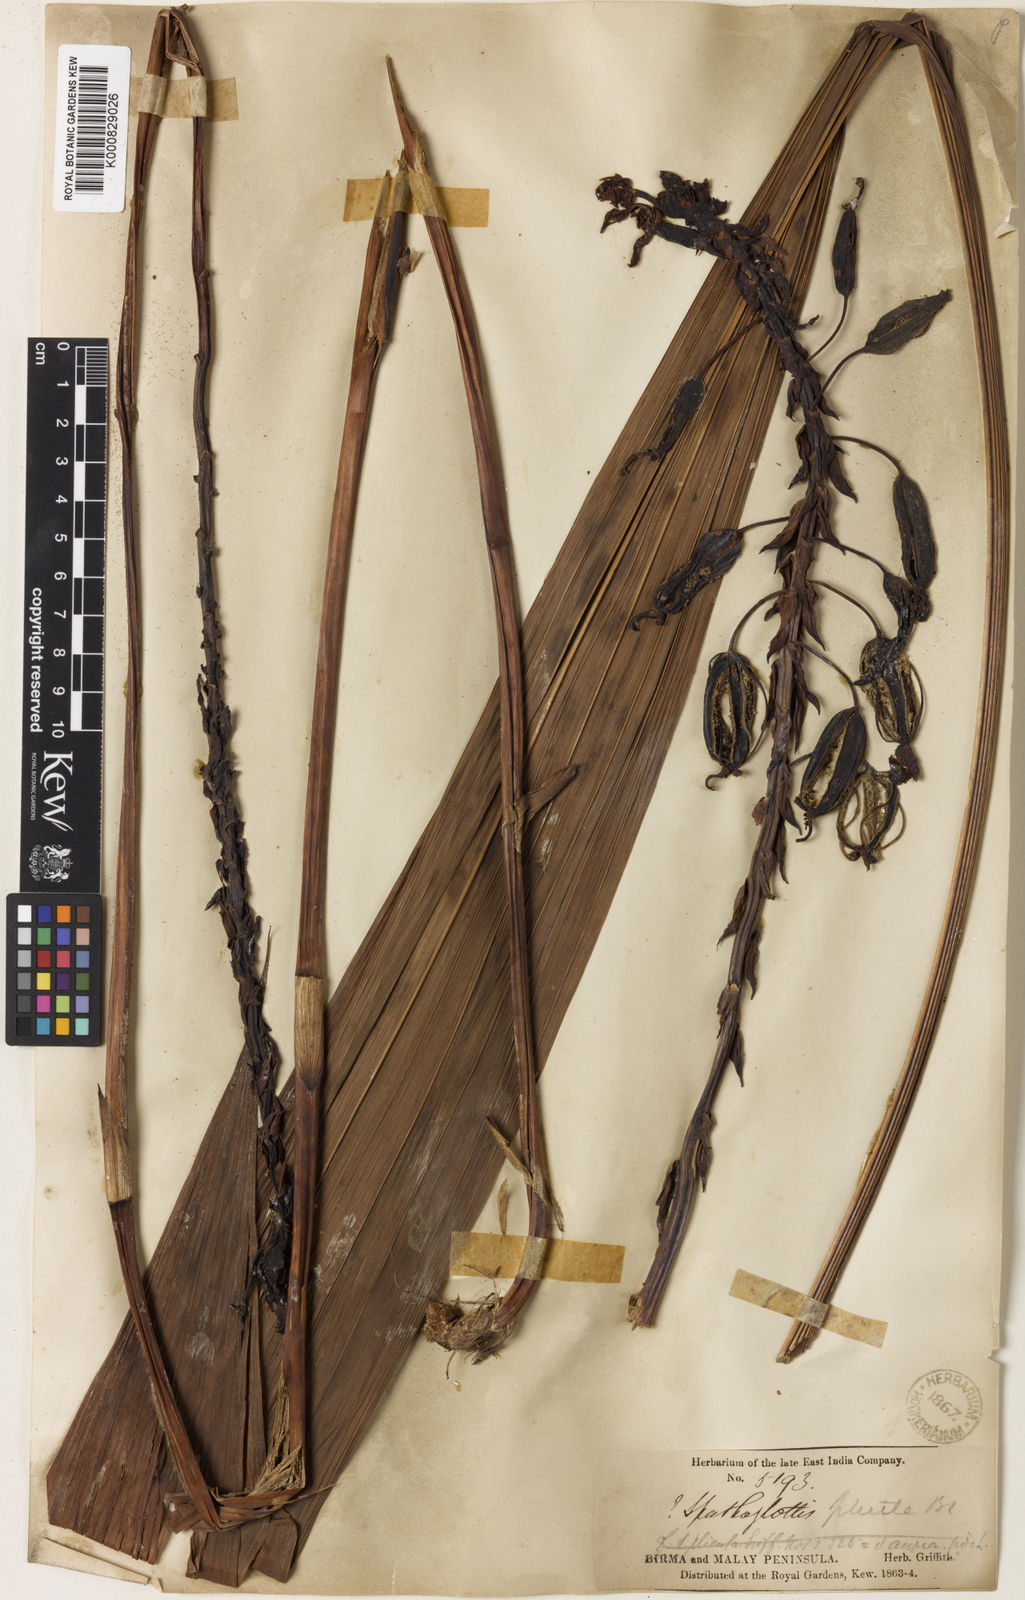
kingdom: Plantae
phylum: Tracheophyta
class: Liliopsida
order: Asparagales
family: Orchidaceae
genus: Spathoglottis
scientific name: Spathoglottis plicata
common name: Philippine ground orchid
